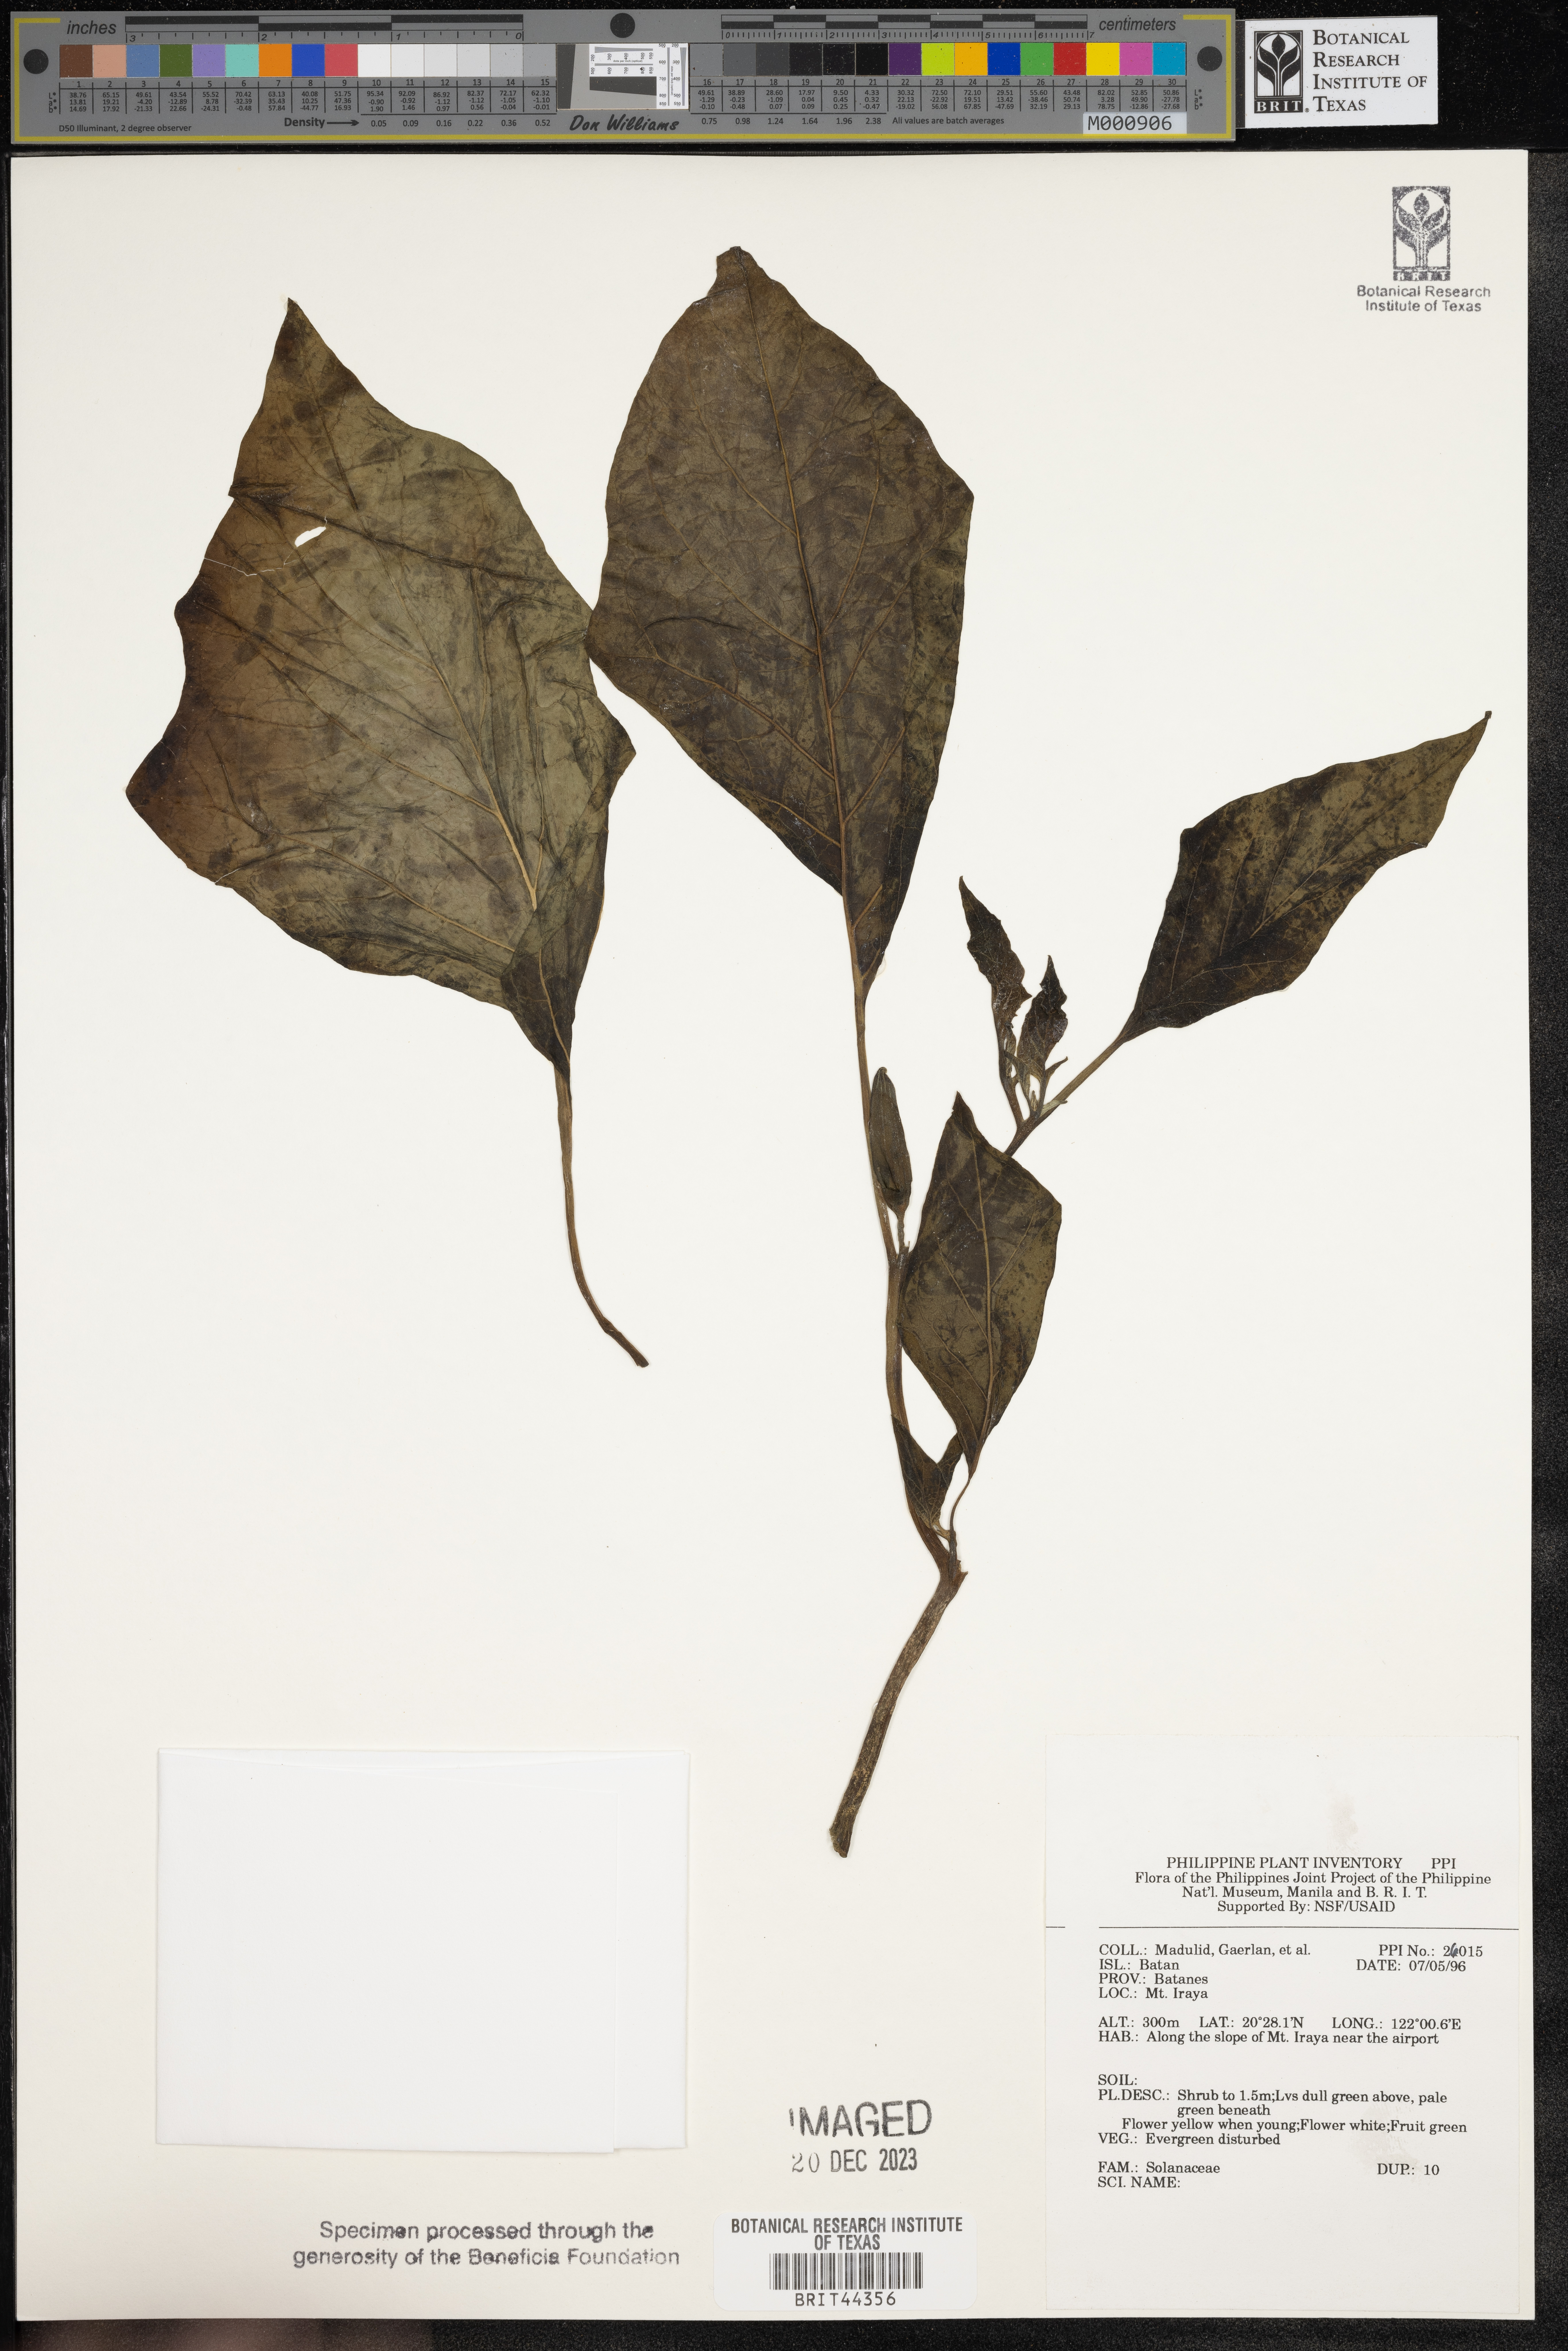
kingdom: Plantae
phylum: Tracheophyta
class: Magnoliopsida
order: Solanales
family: Solanaceae
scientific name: Solanaceae
